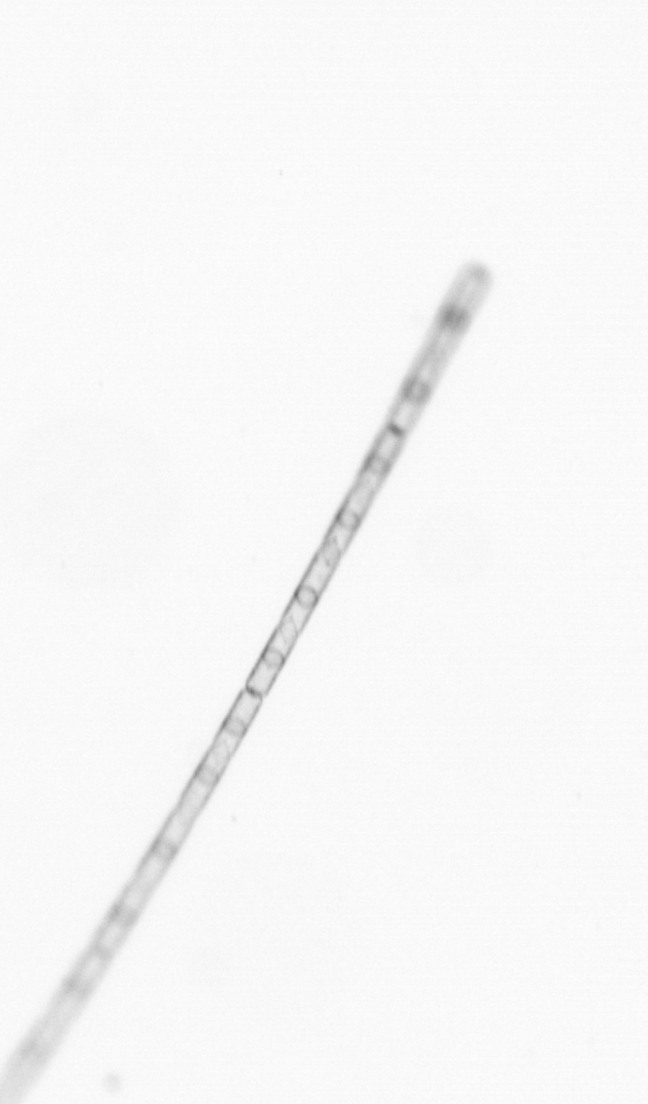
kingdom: Chromista
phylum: Ochrophyta
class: Bacillariophyceae
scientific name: Bacillariophyceae
